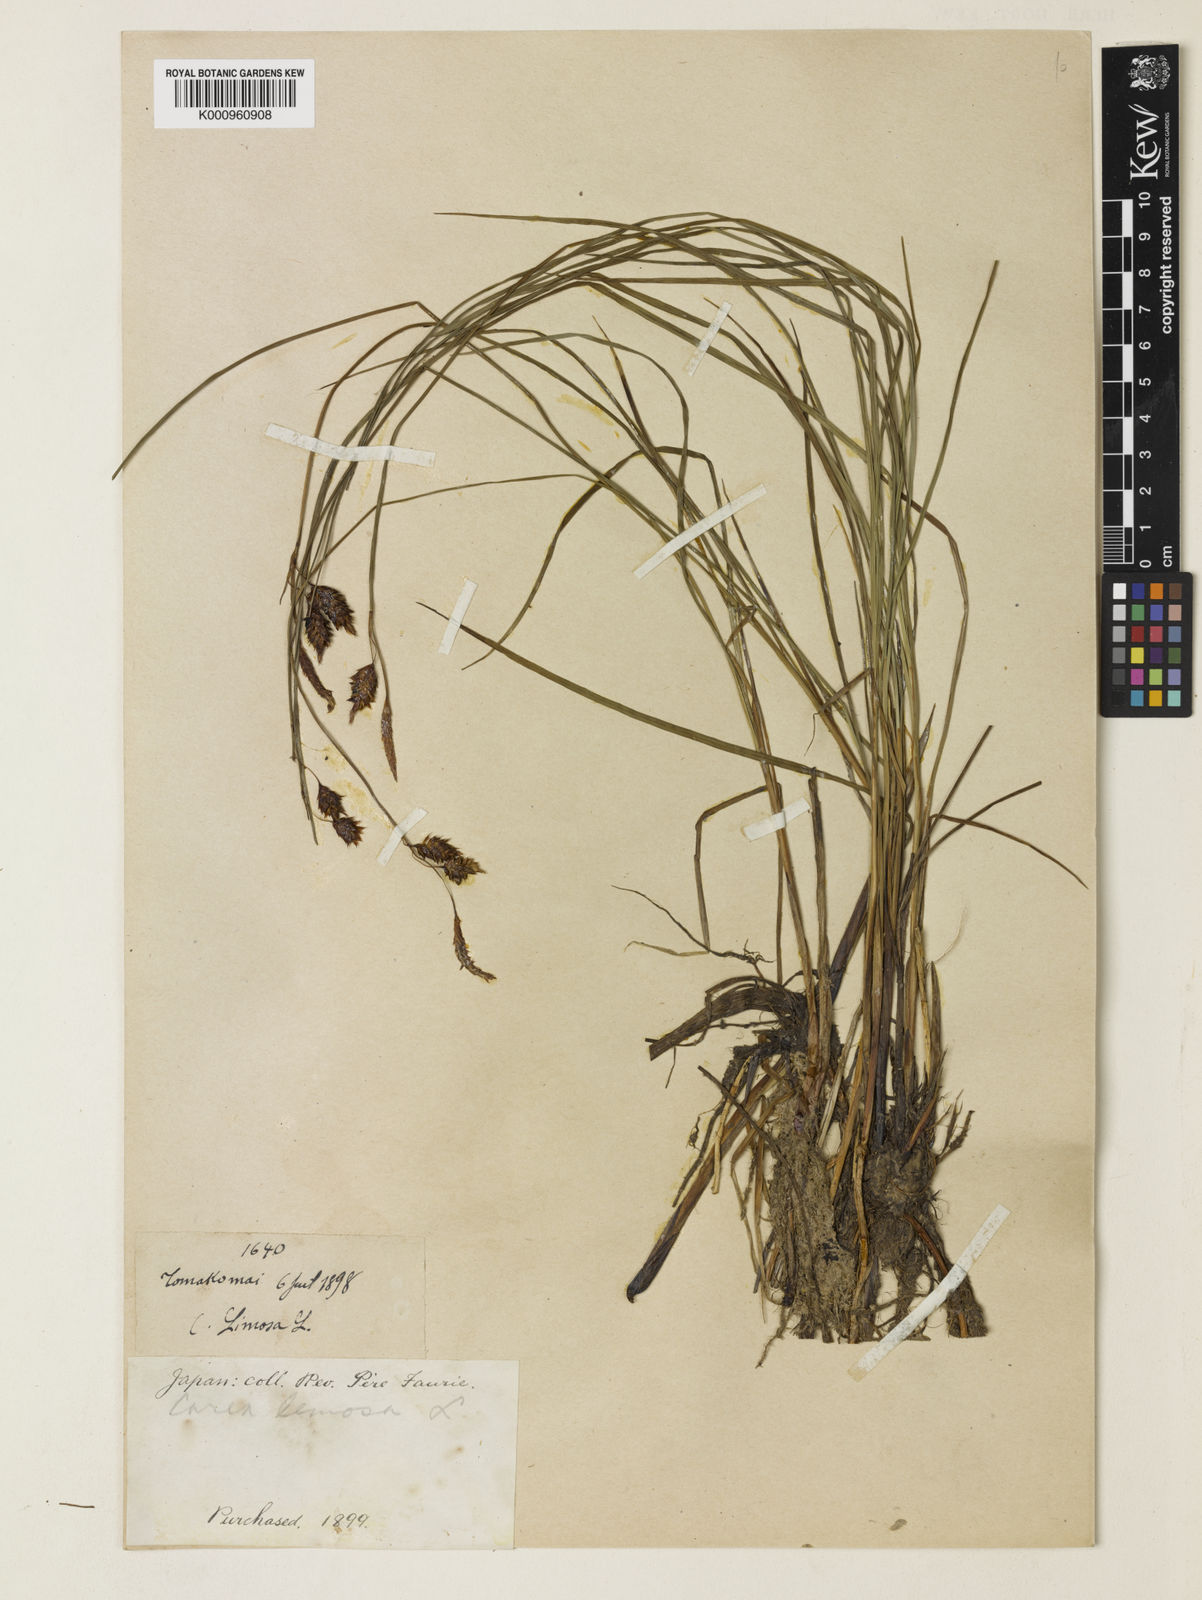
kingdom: Plantae
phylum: Tracheophyta
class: Liliopsida
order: Poales
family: Cyperaceae
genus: Carex
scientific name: Carex limosa
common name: Bog sedge
